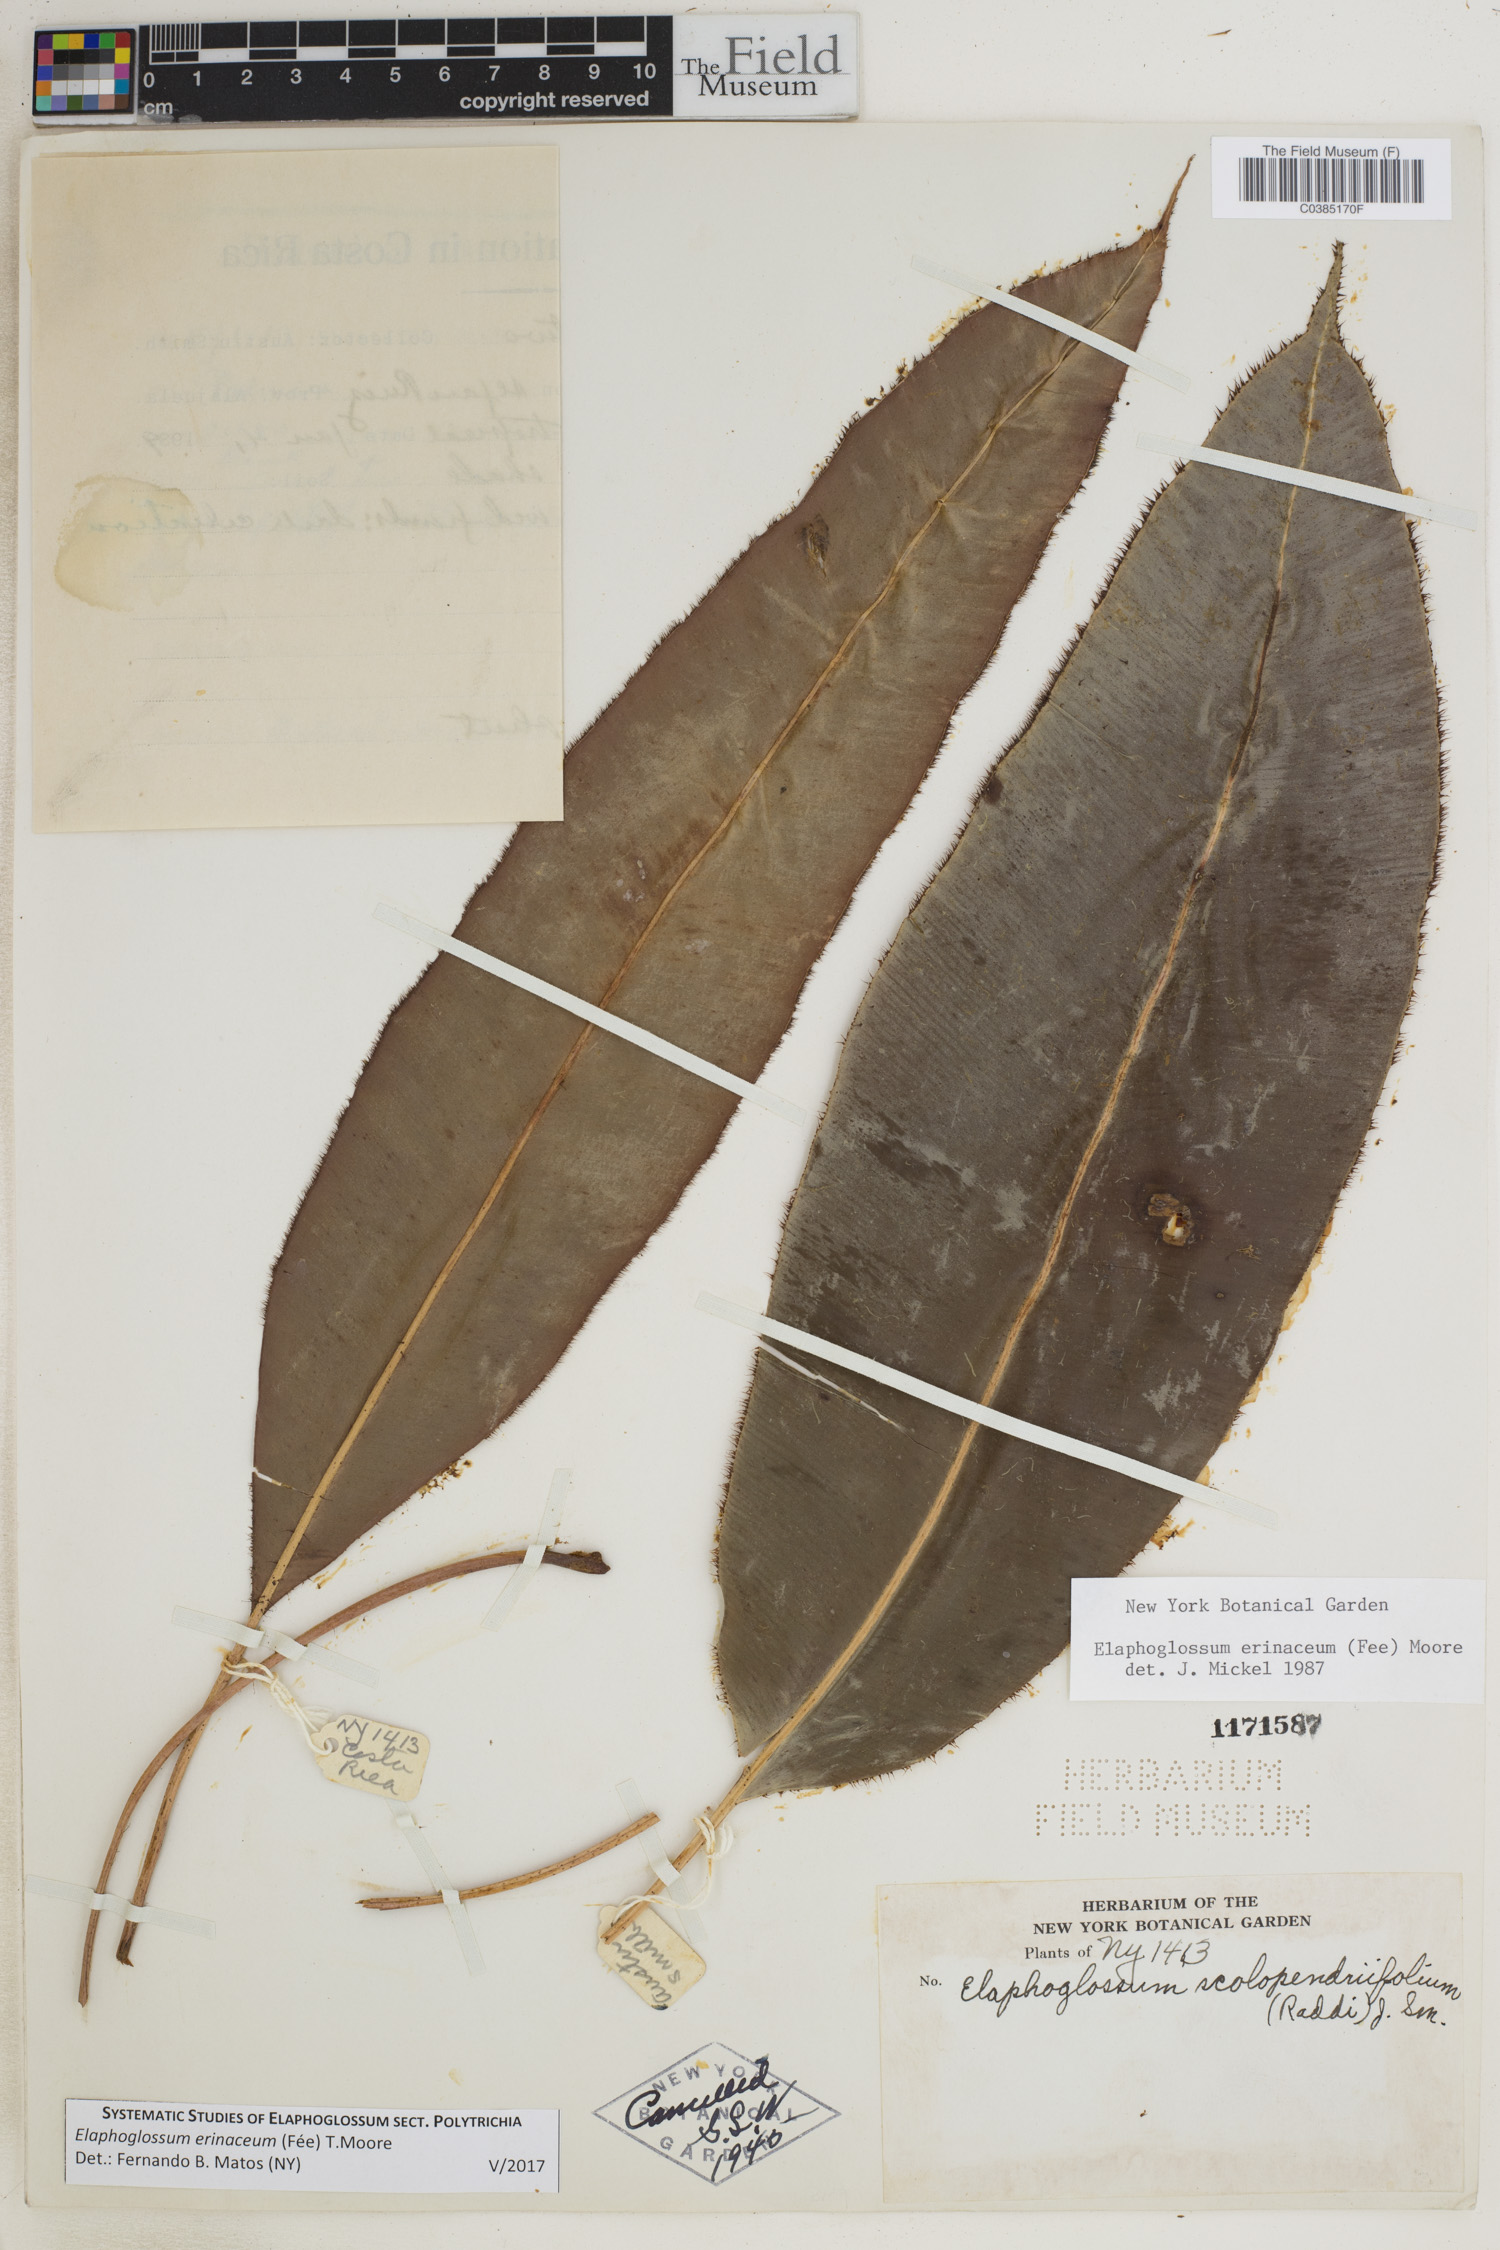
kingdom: Plantae
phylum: Tracheophyta
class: Polypodiopsida
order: Polypodiales
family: Dryopteridaceae
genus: Elaphoglossum
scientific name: Elaphoglossum erinaceum
